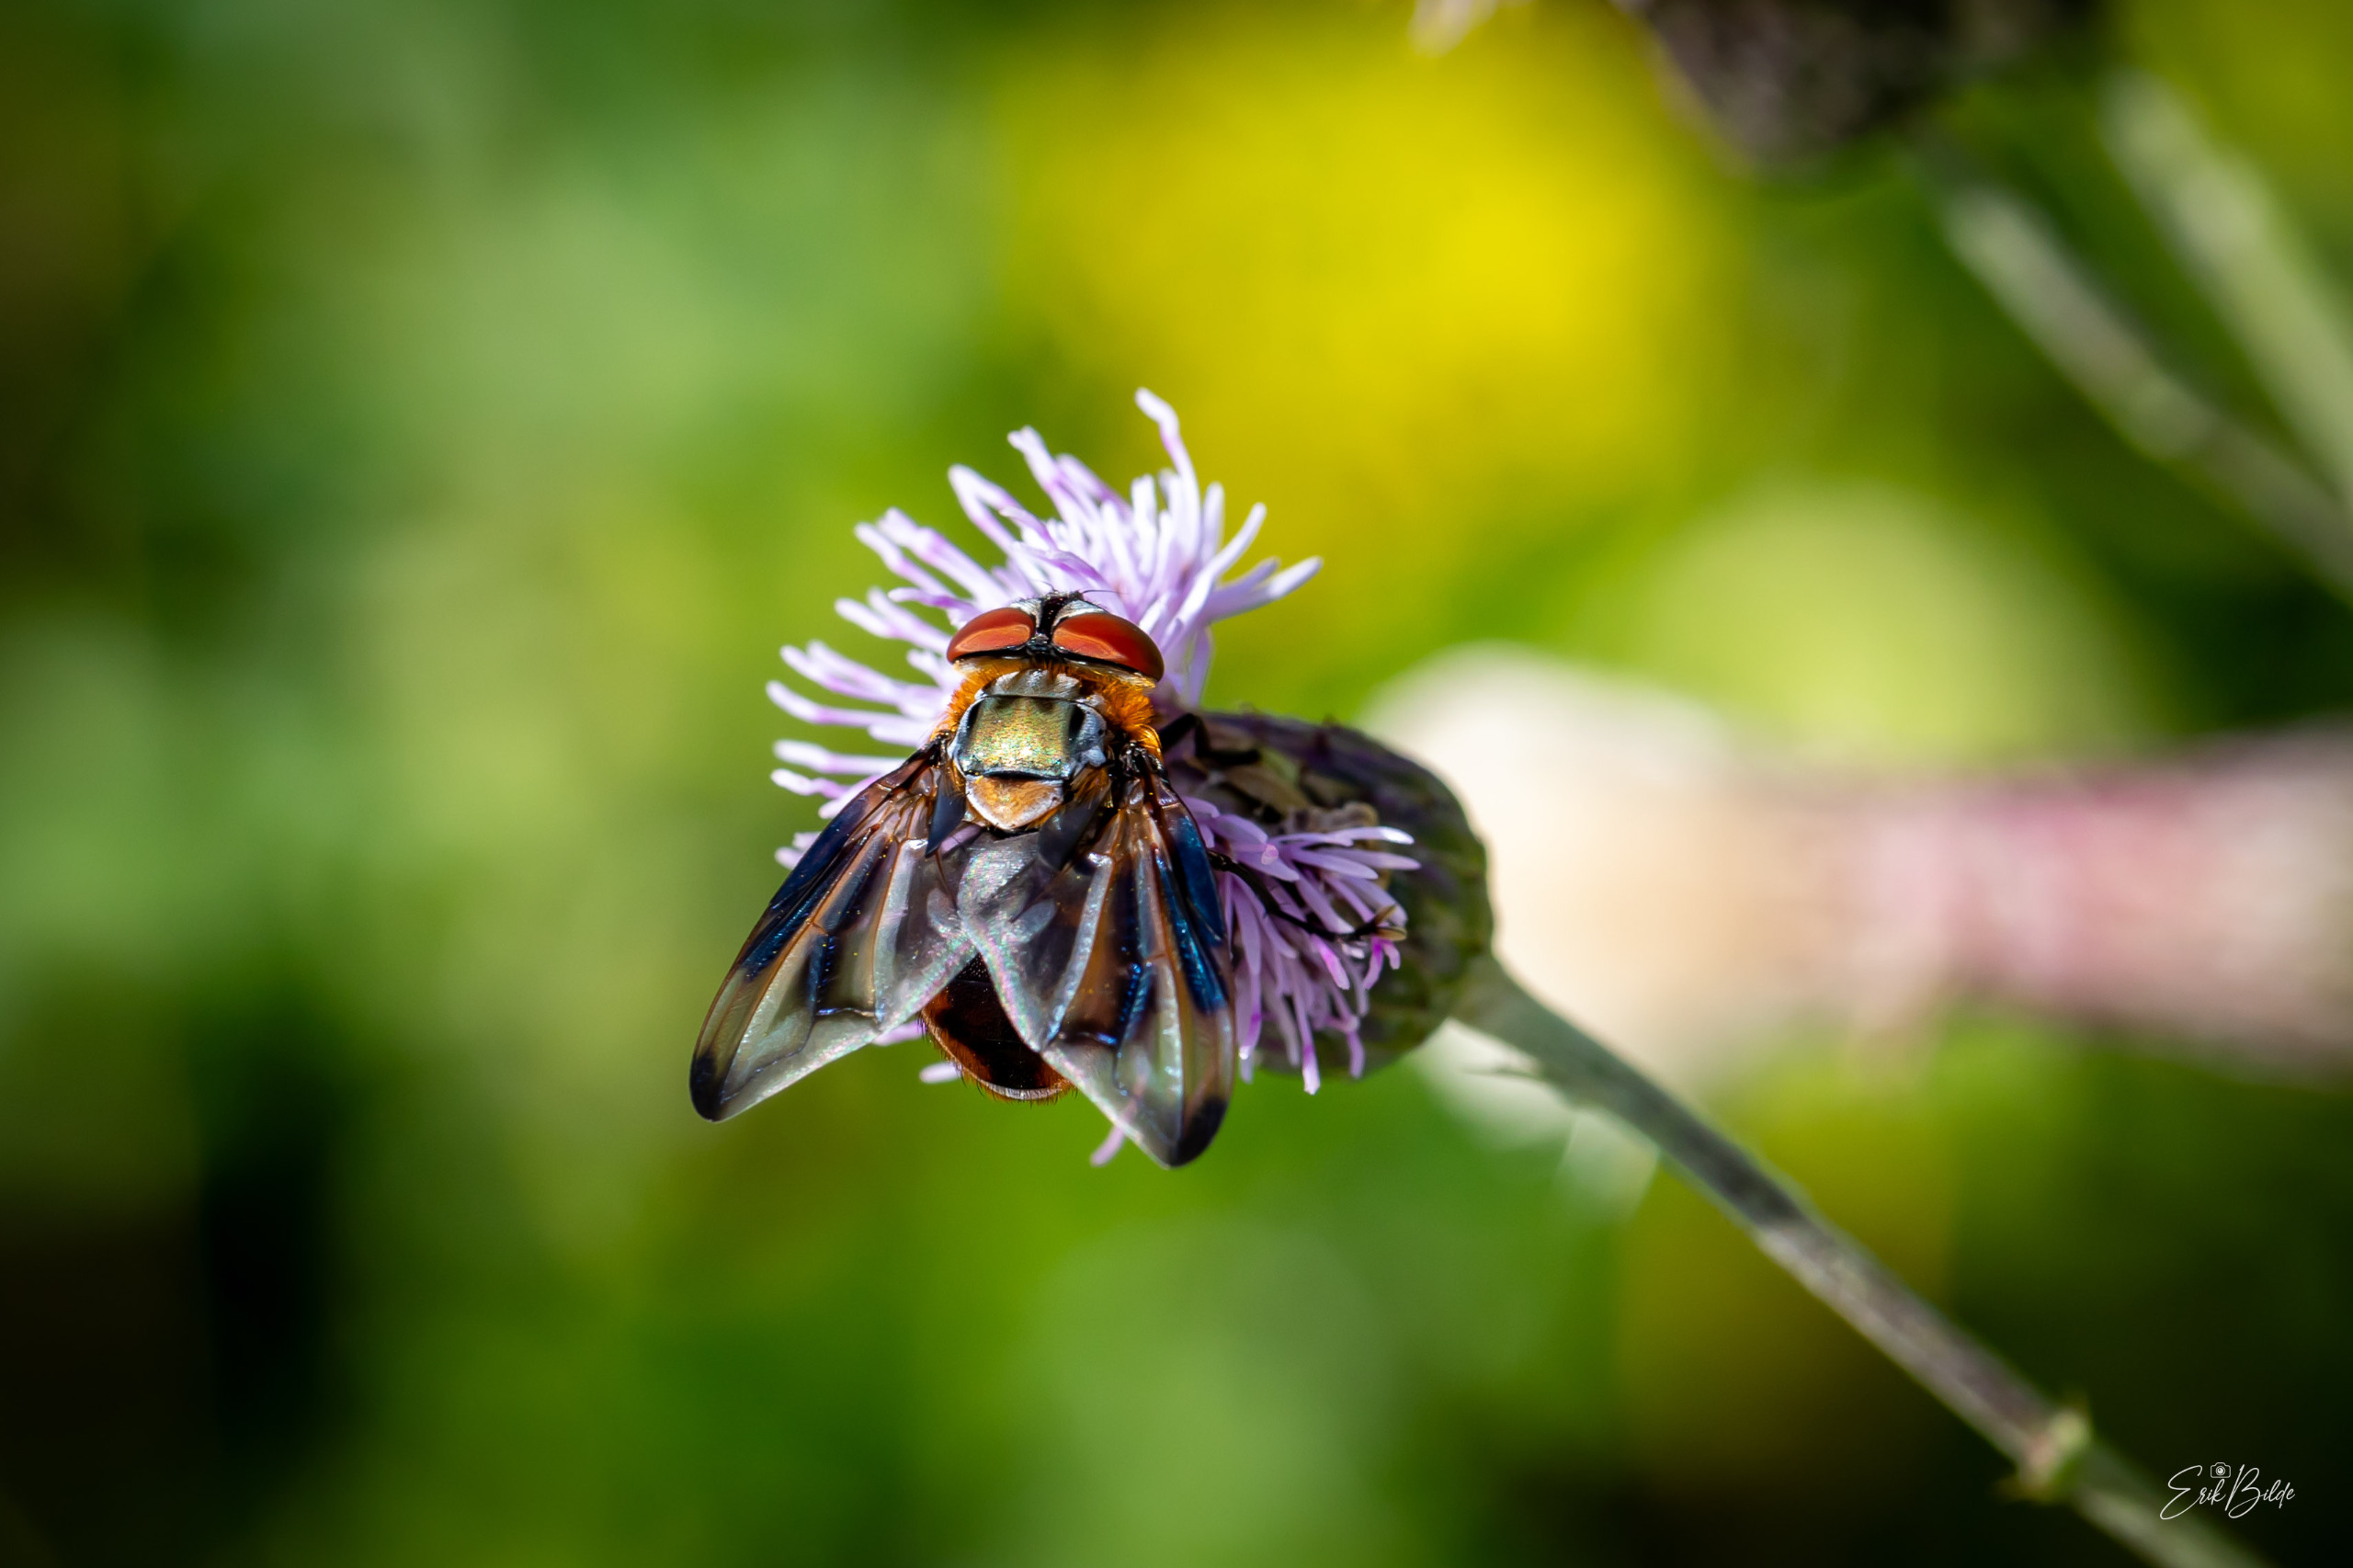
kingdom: Animalia
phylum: Arthropoda
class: Insecta
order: Diptera
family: Tachinidae
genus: Phasia
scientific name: Phasia hemiptera
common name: Blåvinget pragtsnylteflue
